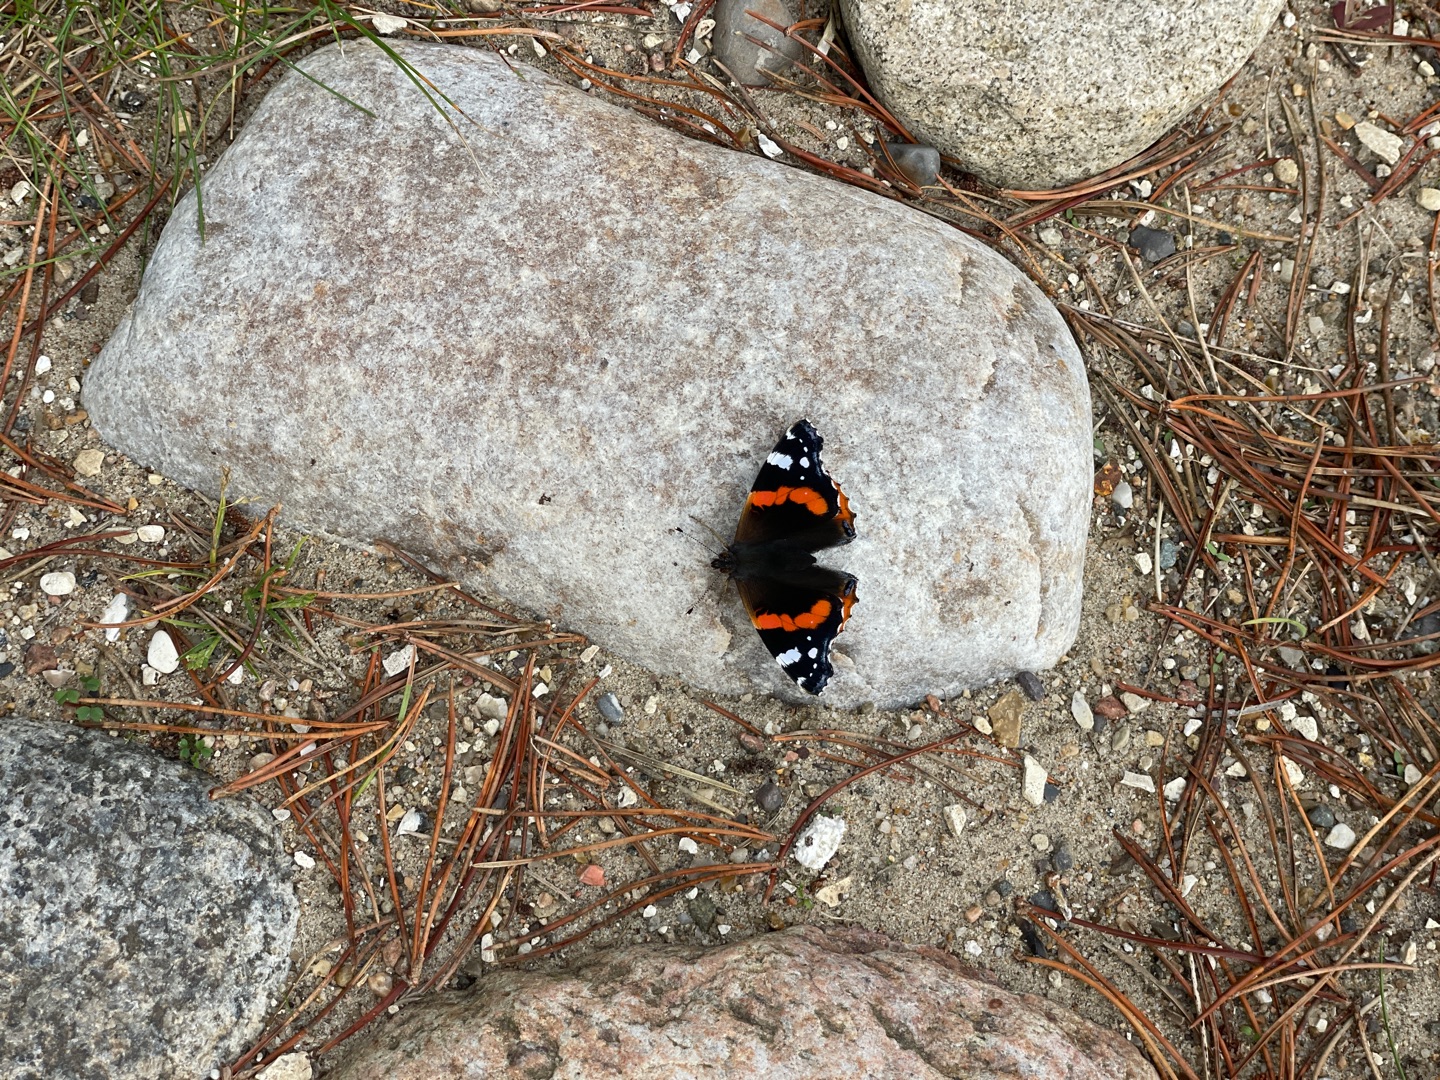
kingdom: Animalia
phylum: Arthropoda
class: Insecta
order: Lepidoptera
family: Nymphalidae
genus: Vanessa
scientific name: Vanessa atalanta
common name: Admiral
